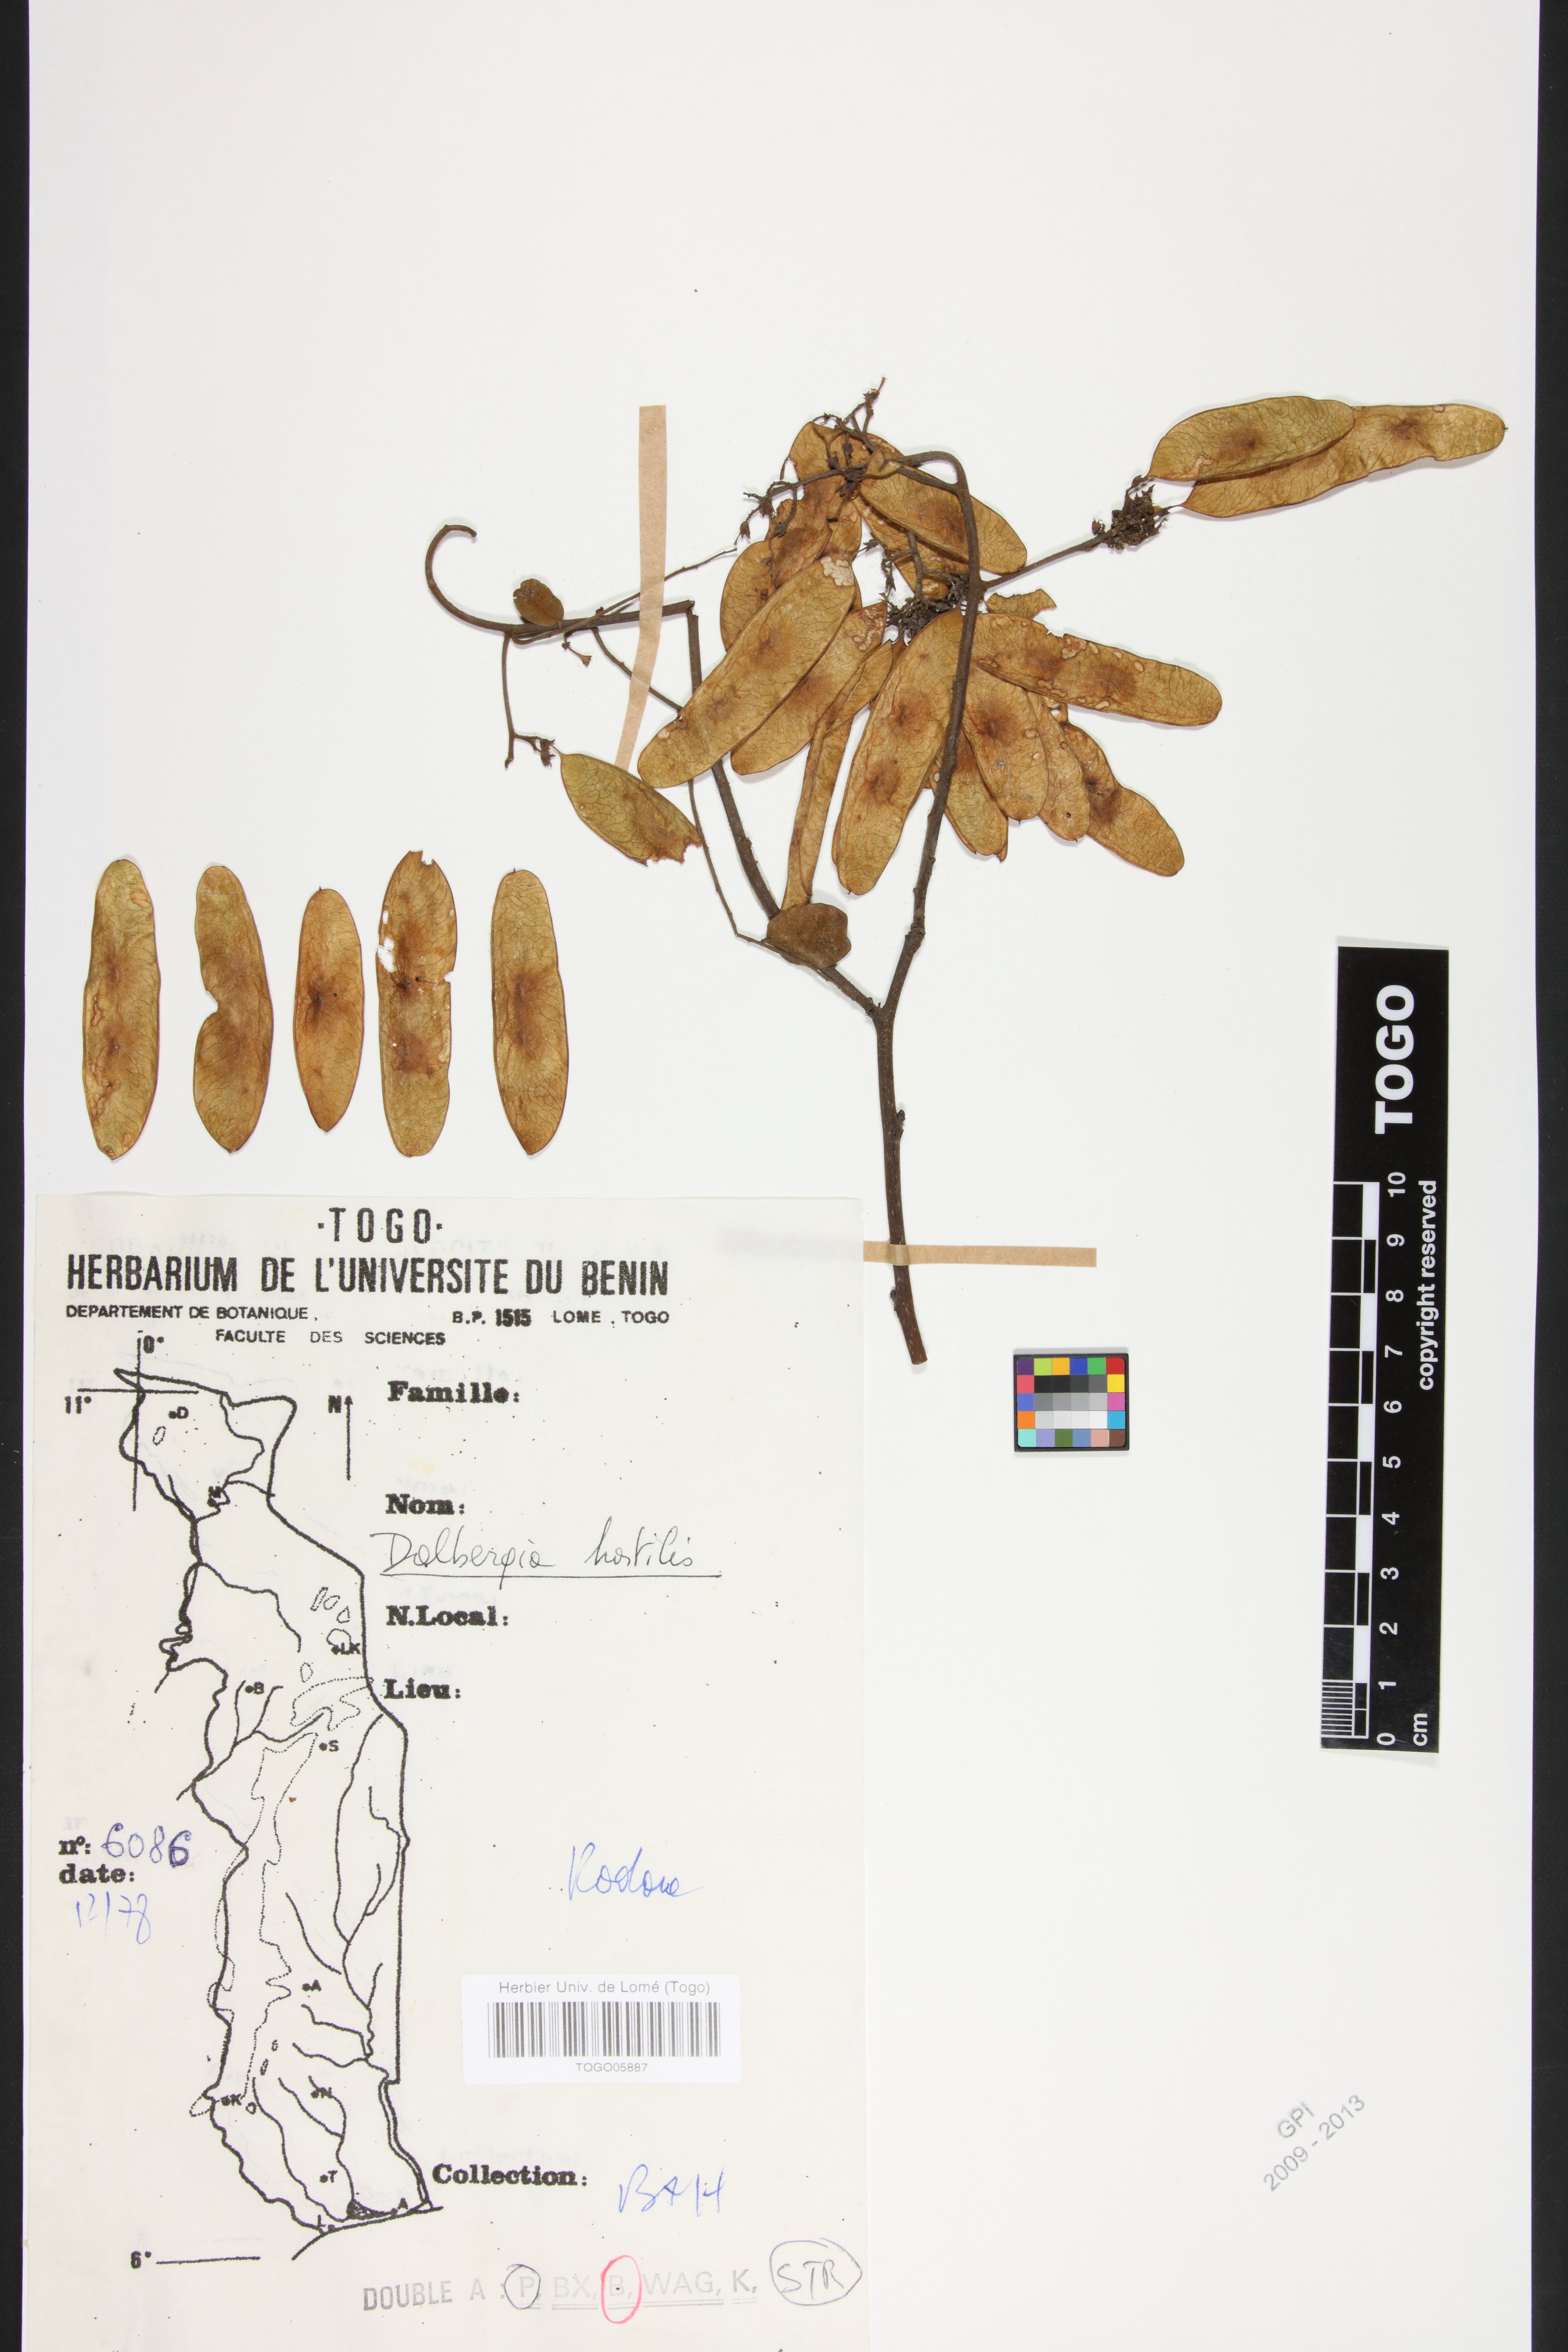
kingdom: Plantae
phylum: Tracheophyta
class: Magnoliopsida
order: Fabales
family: Fabaceae
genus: Dalbergia
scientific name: Dalbergia hostilis
